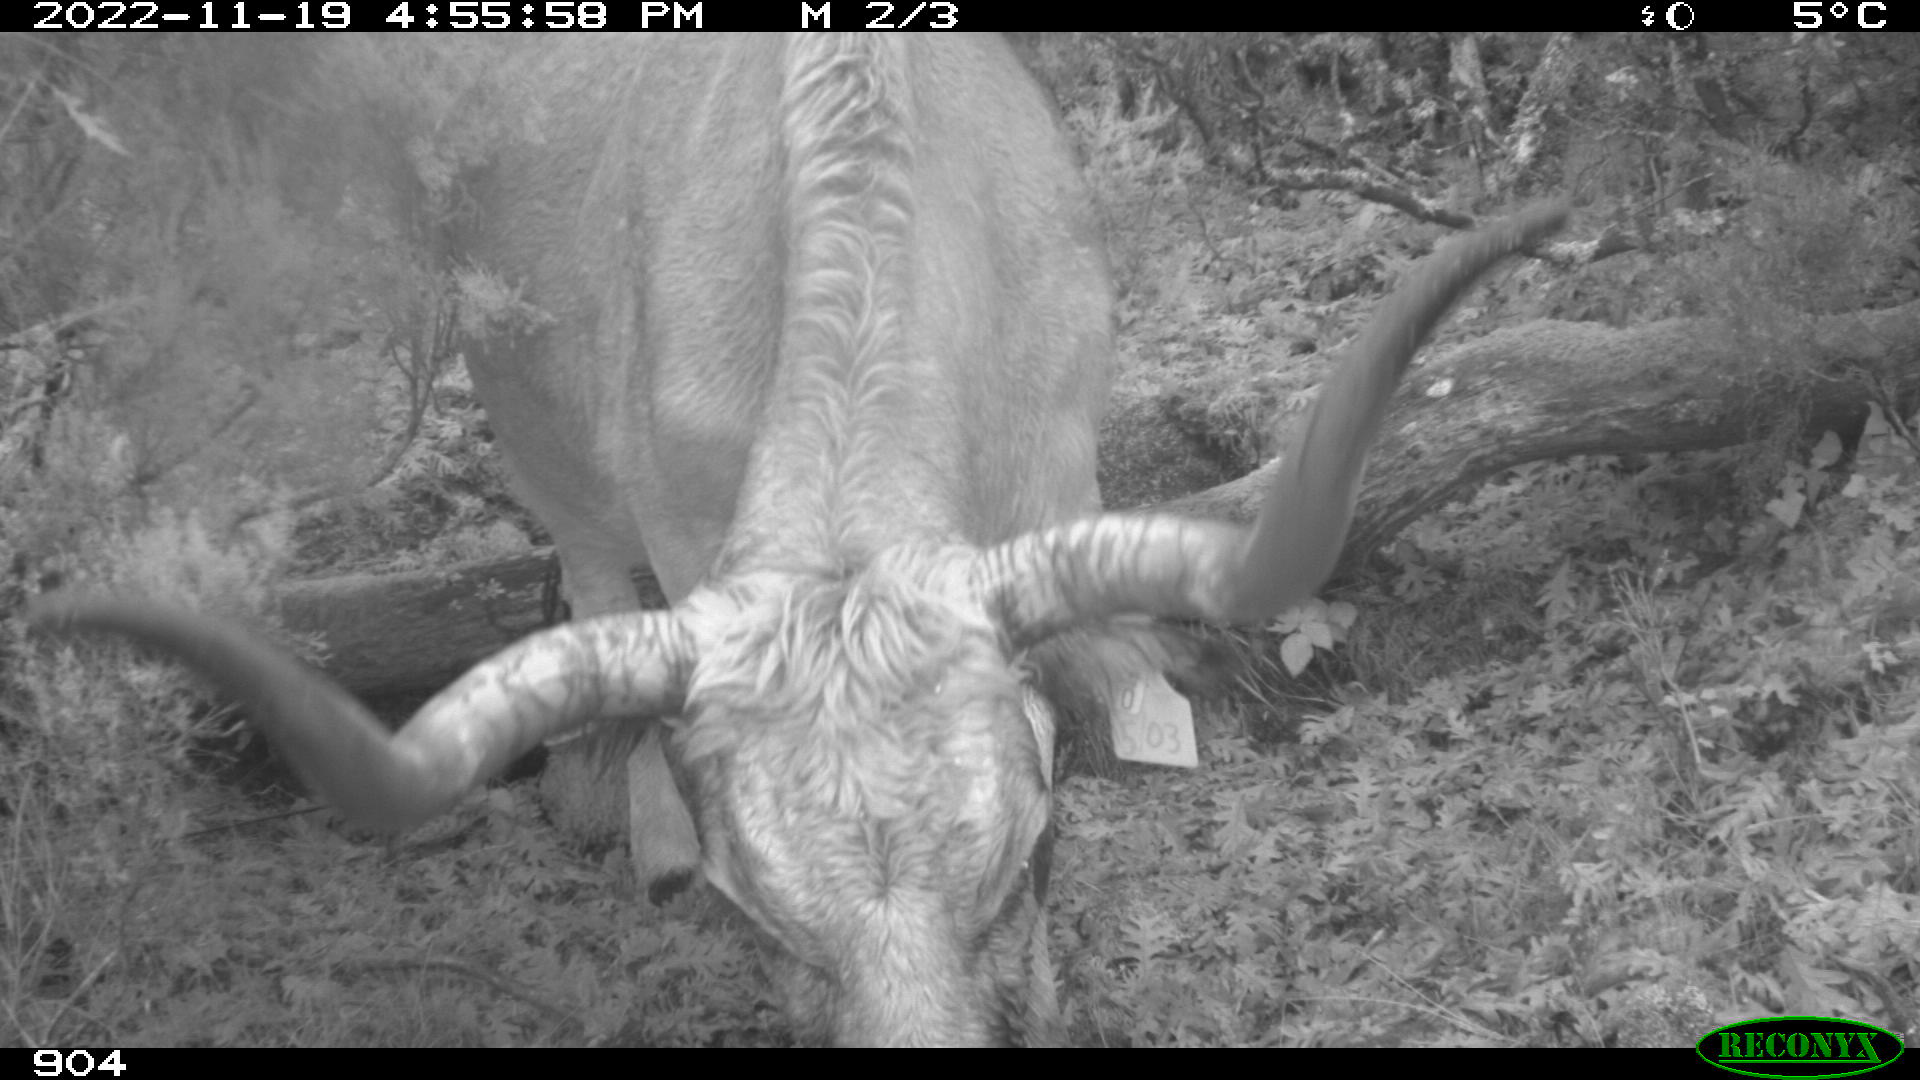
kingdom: Animalia
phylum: Chordata
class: Mammalia
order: Artiodactyla
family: Bovidae
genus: Bos
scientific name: Bos taurus
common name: Domesticated cattle
